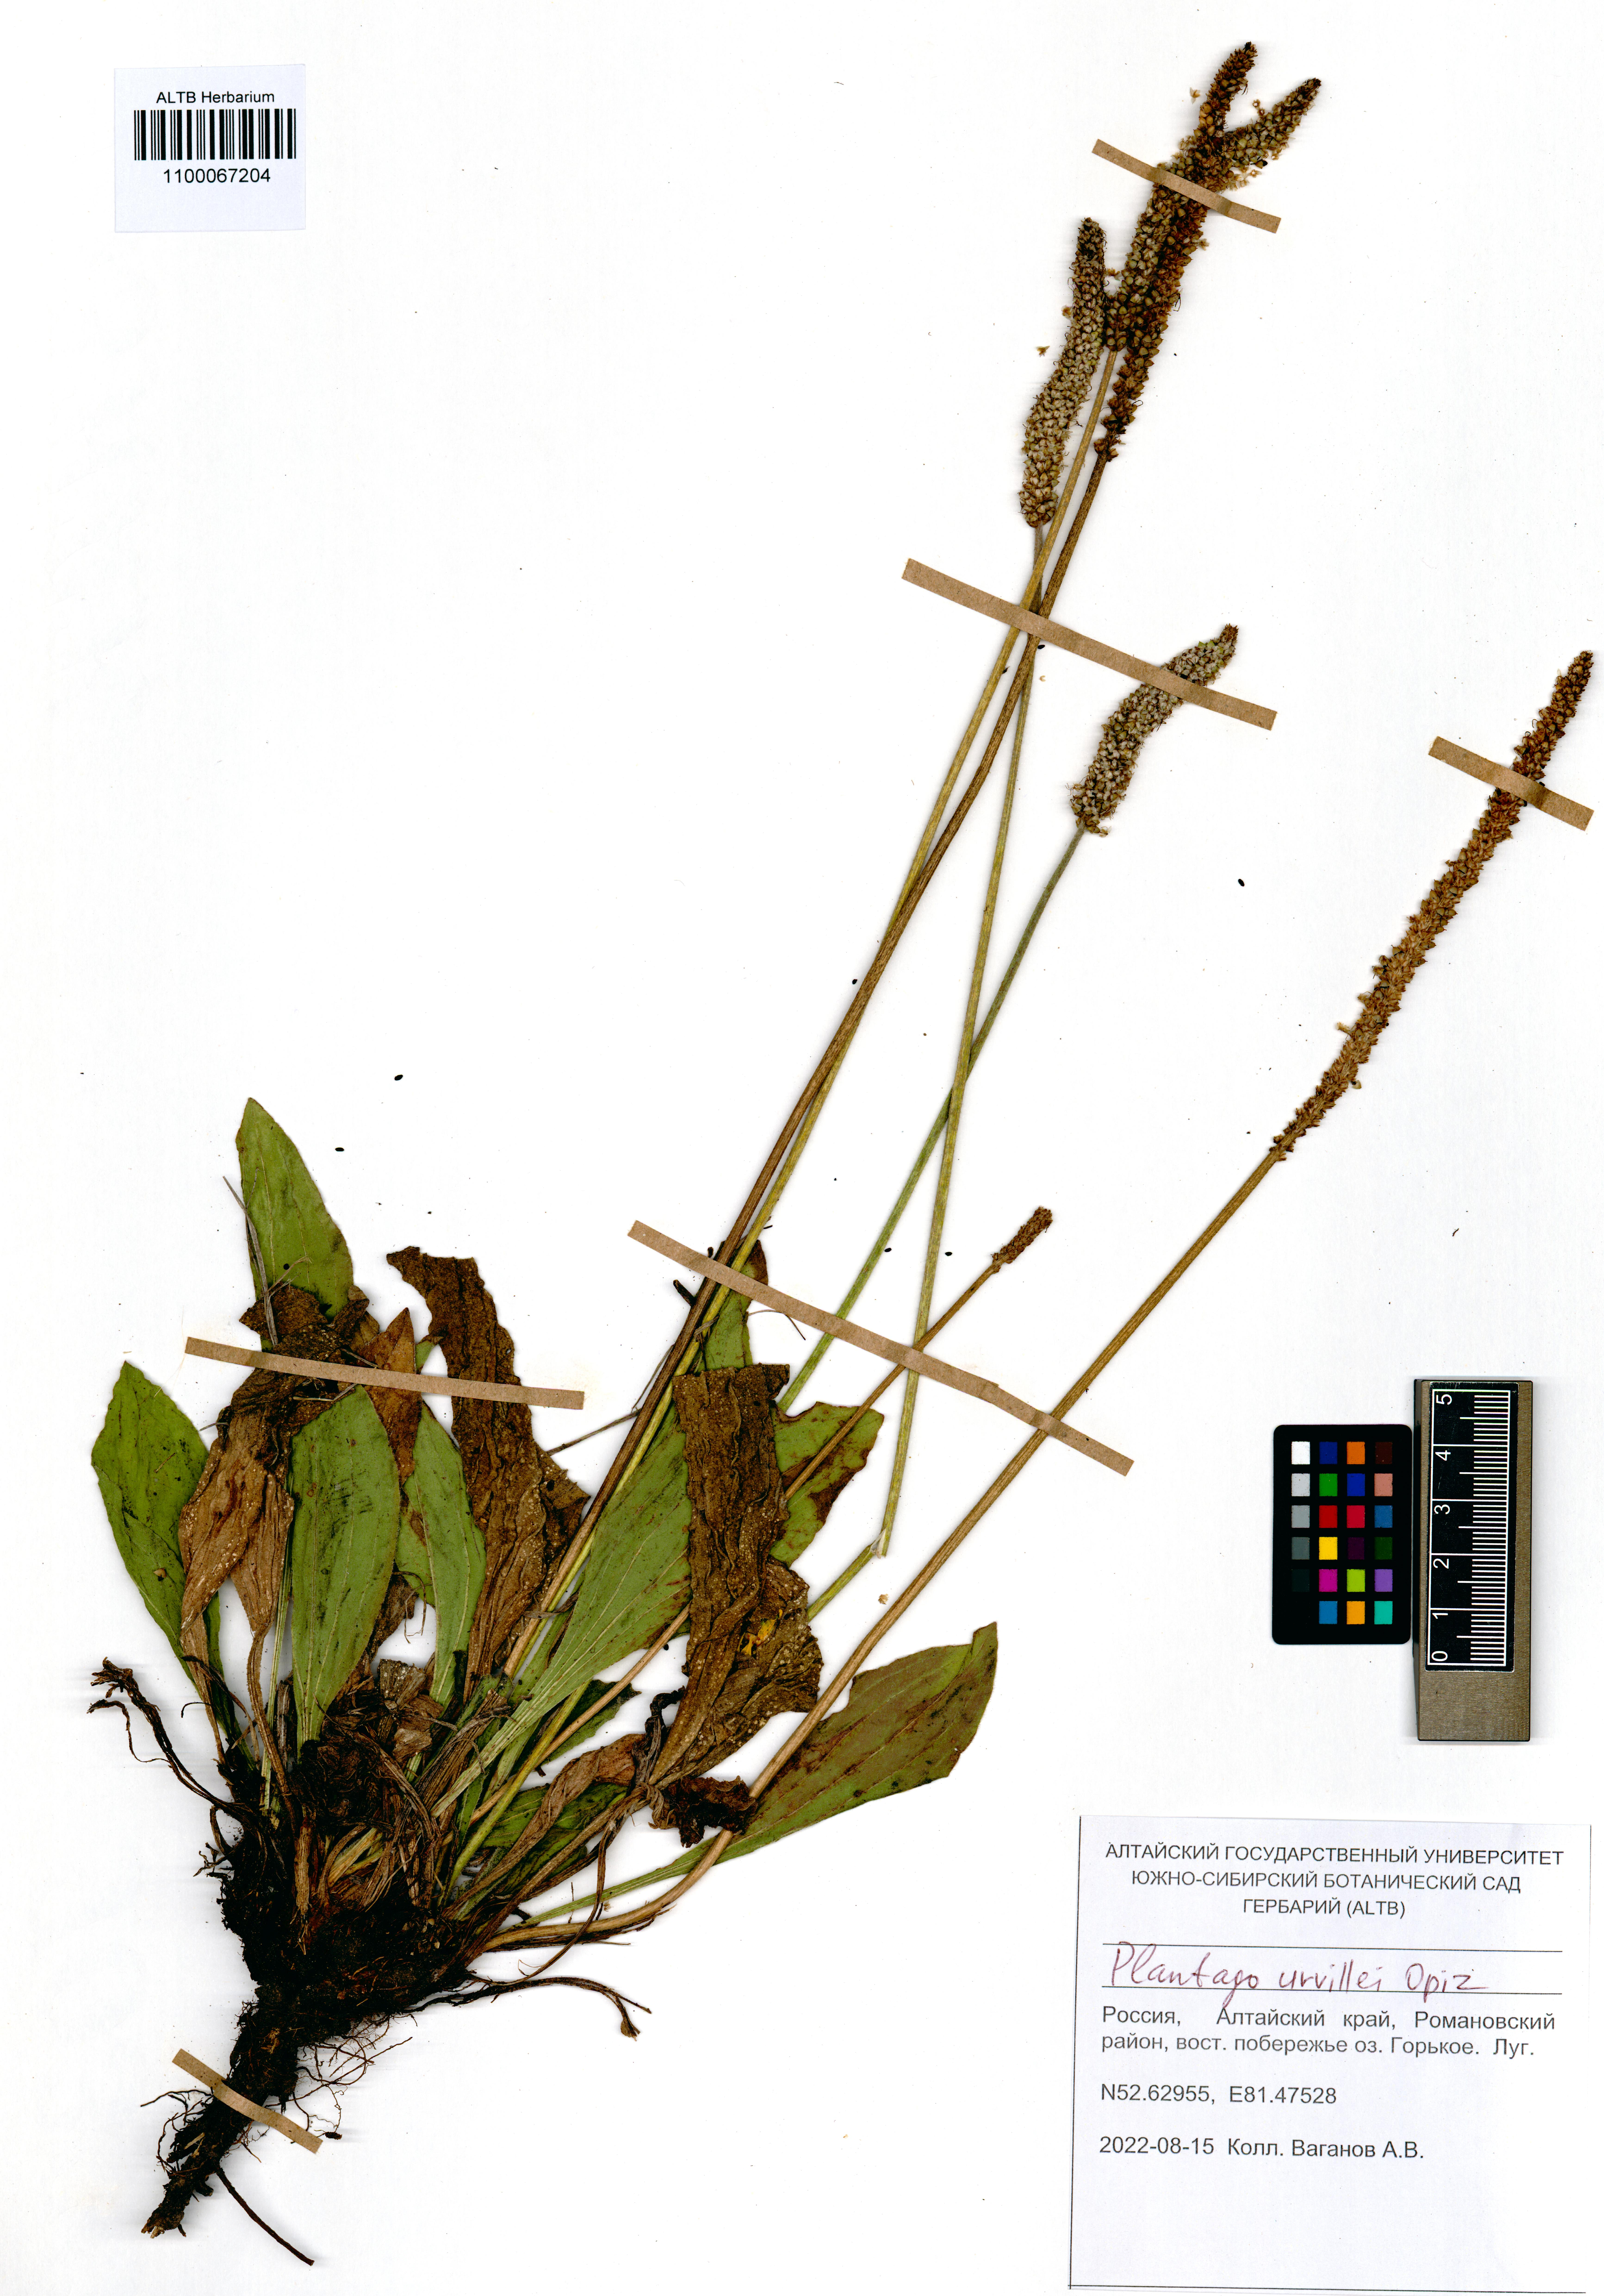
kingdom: Plantae
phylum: Tracheophyta
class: Magnoliopsida
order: Lamiales
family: Plantaginaceae
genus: Plantago
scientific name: Plantago urvillei
